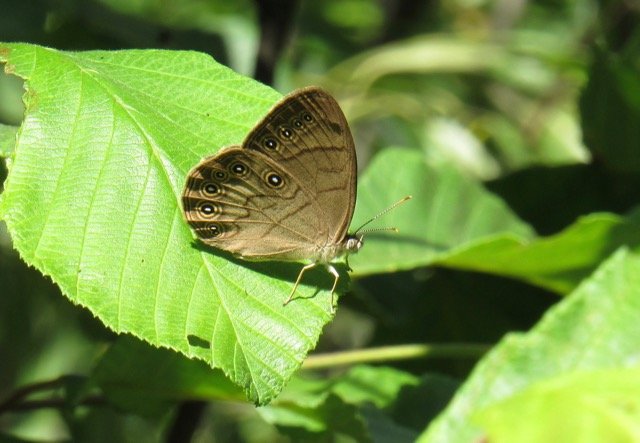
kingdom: Animalia
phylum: Arthropoda
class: Insecta
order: Lepidoptera
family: Nymphalidae
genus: Lethe
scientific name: Lethe eurydice
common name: Appalachian Eyed Brown
